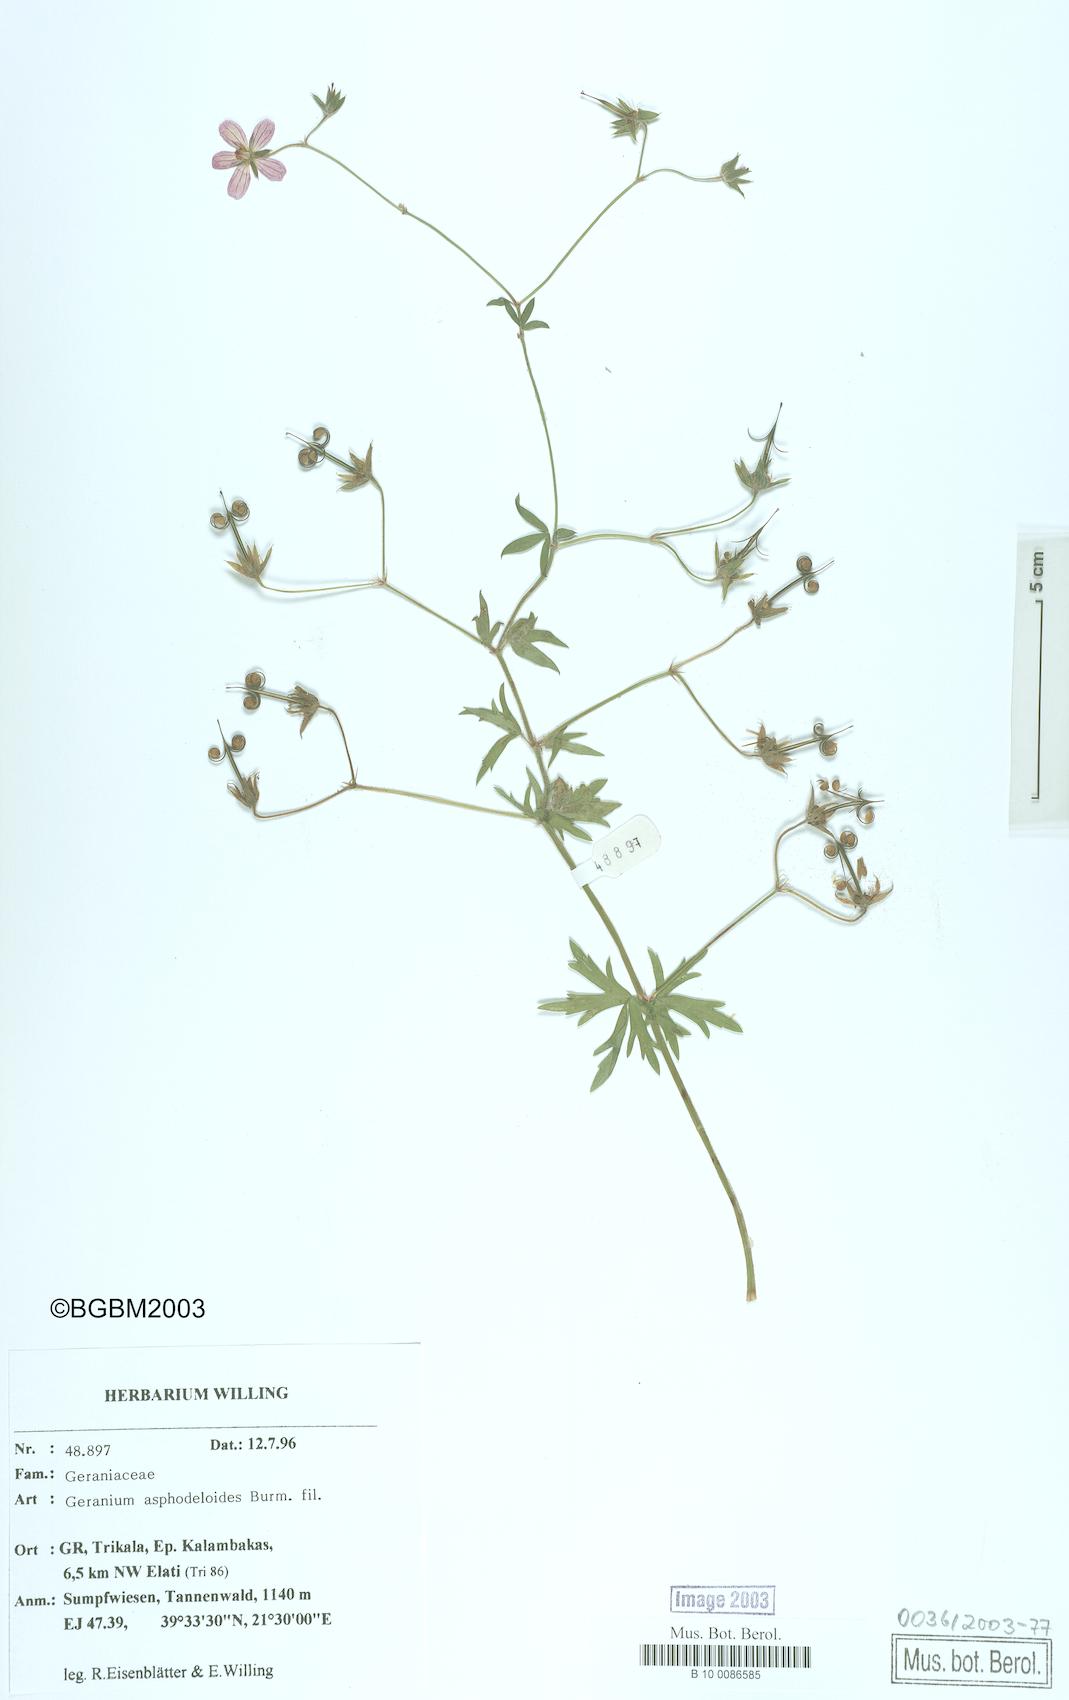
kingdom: Plantae
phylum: Tracheophyta
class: Magnoliopsida
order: Geraniales
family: Geraniaceae
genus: Geranium
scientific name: Geranium asphodeloides
